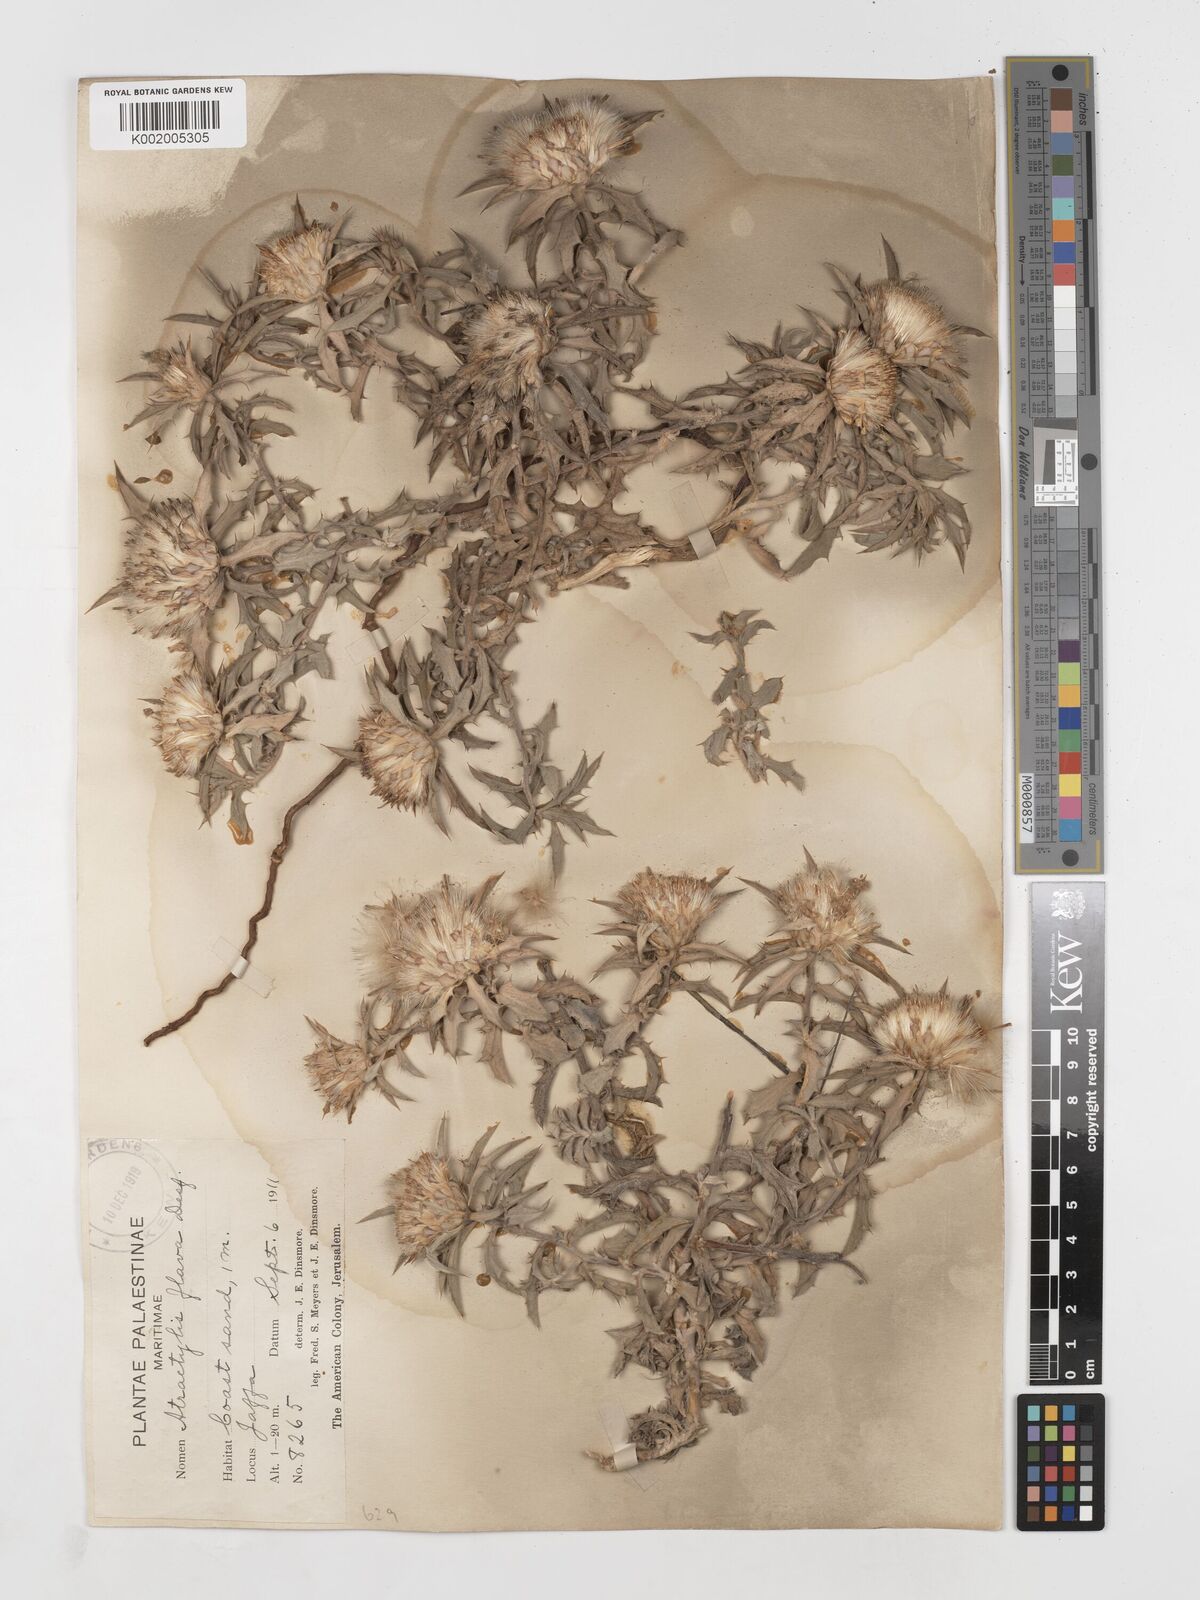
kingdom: Plantae
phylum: Tracheophyta
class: Magnoliopsida
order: Asterales
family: Asteraceae
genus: Atractylis
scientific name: Atractylis carduus
